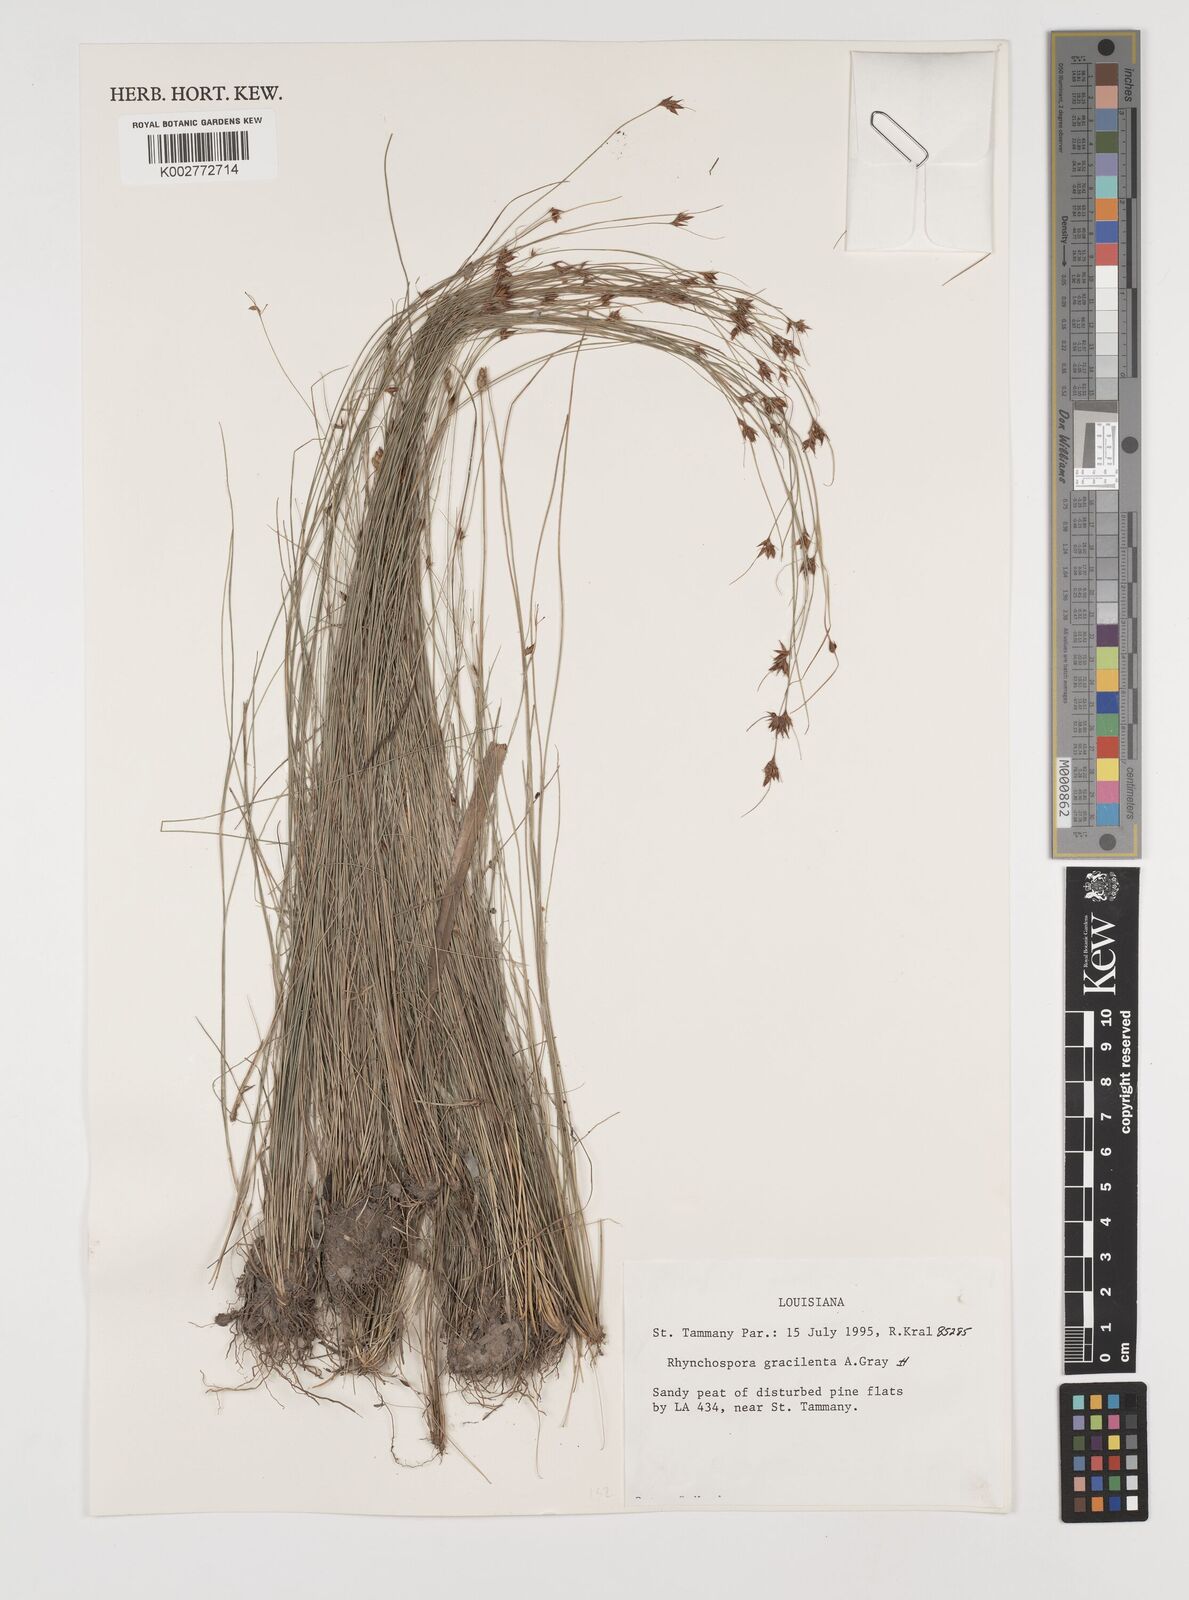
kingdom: Plantae
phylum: Tracheophyta
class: Liliopsida
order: Poales
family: Cyperaceae
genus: Rhynchospora
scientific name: Rhynchospora gracilenta
